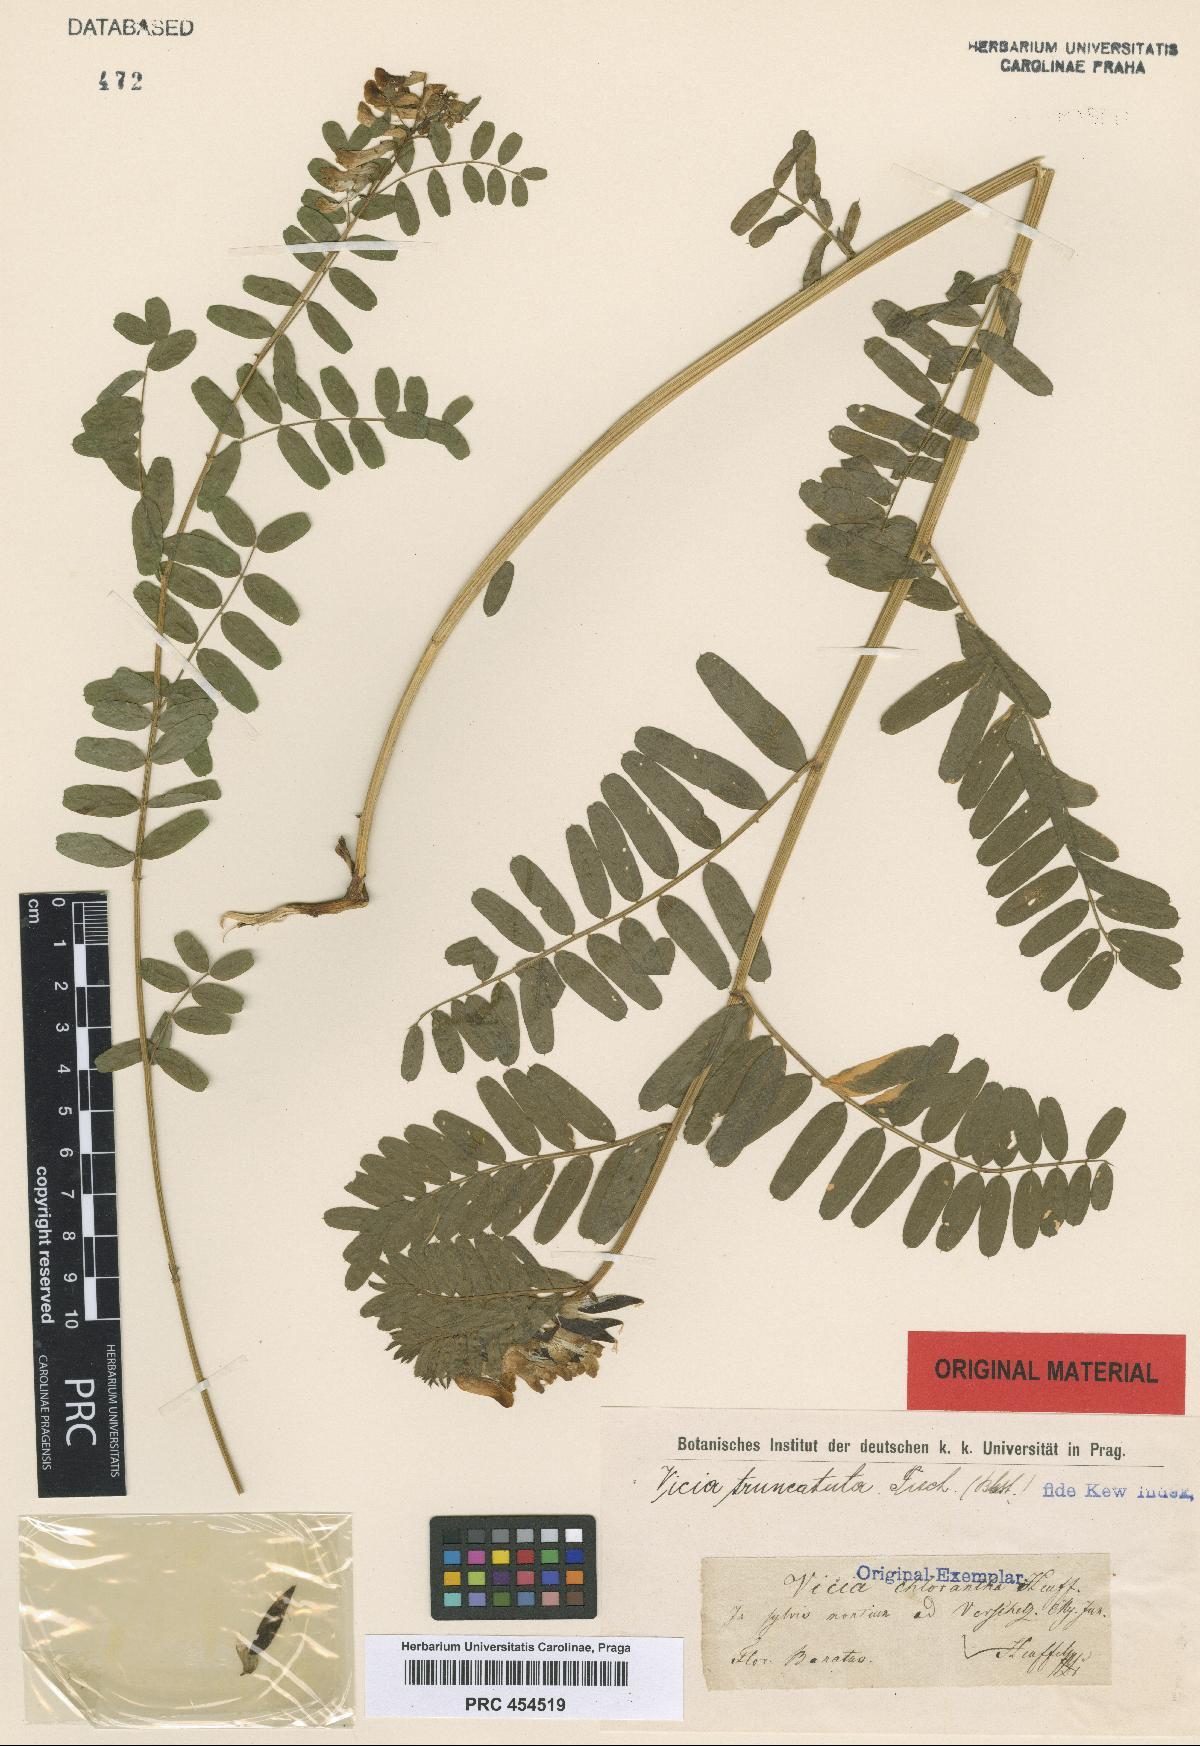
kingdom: Plantae
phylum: Tracheophyta
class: Magnoliopsida
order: Fabales
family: Fabaceae
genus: Vicia
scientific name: Vicia abbreviata
